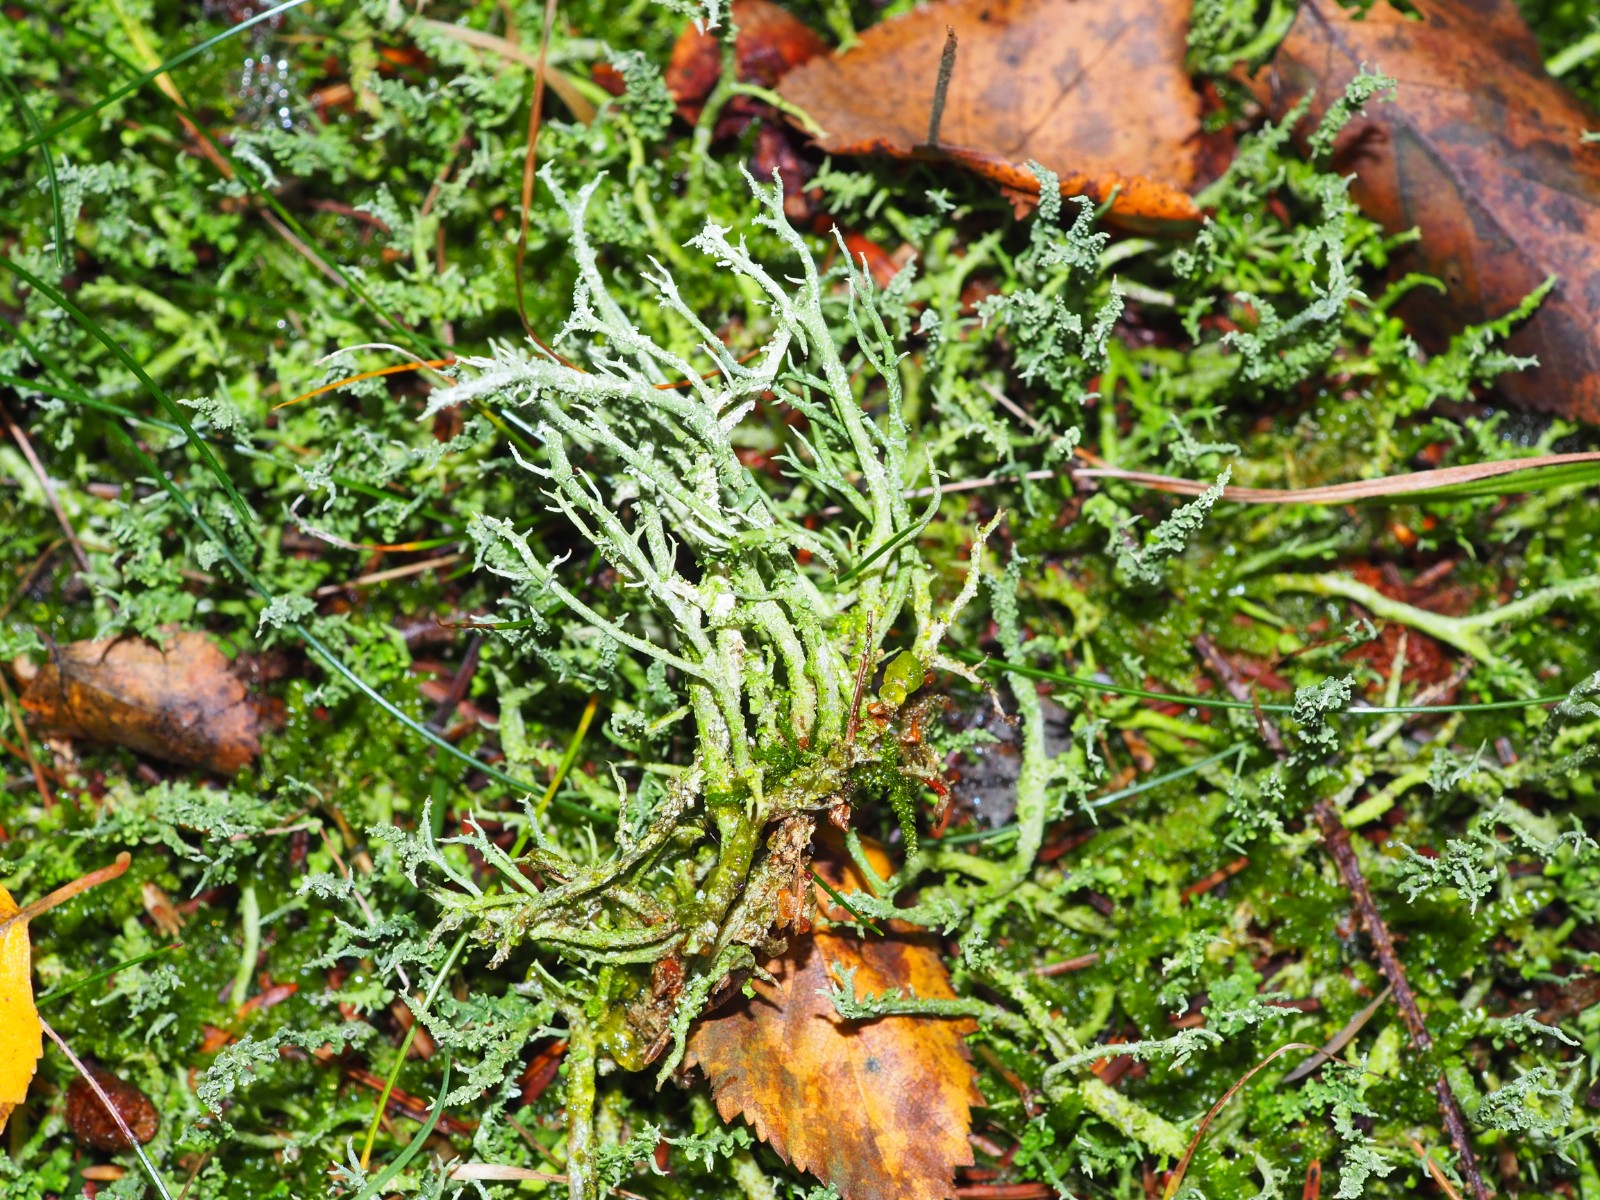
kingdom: Fungi
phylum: Ascomycota
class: Lecanoromycetes
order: Lecanorales
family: Cladoniaceae
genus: Cladonia
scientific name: Cladonia scabriuscula
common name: ru bægerlav
